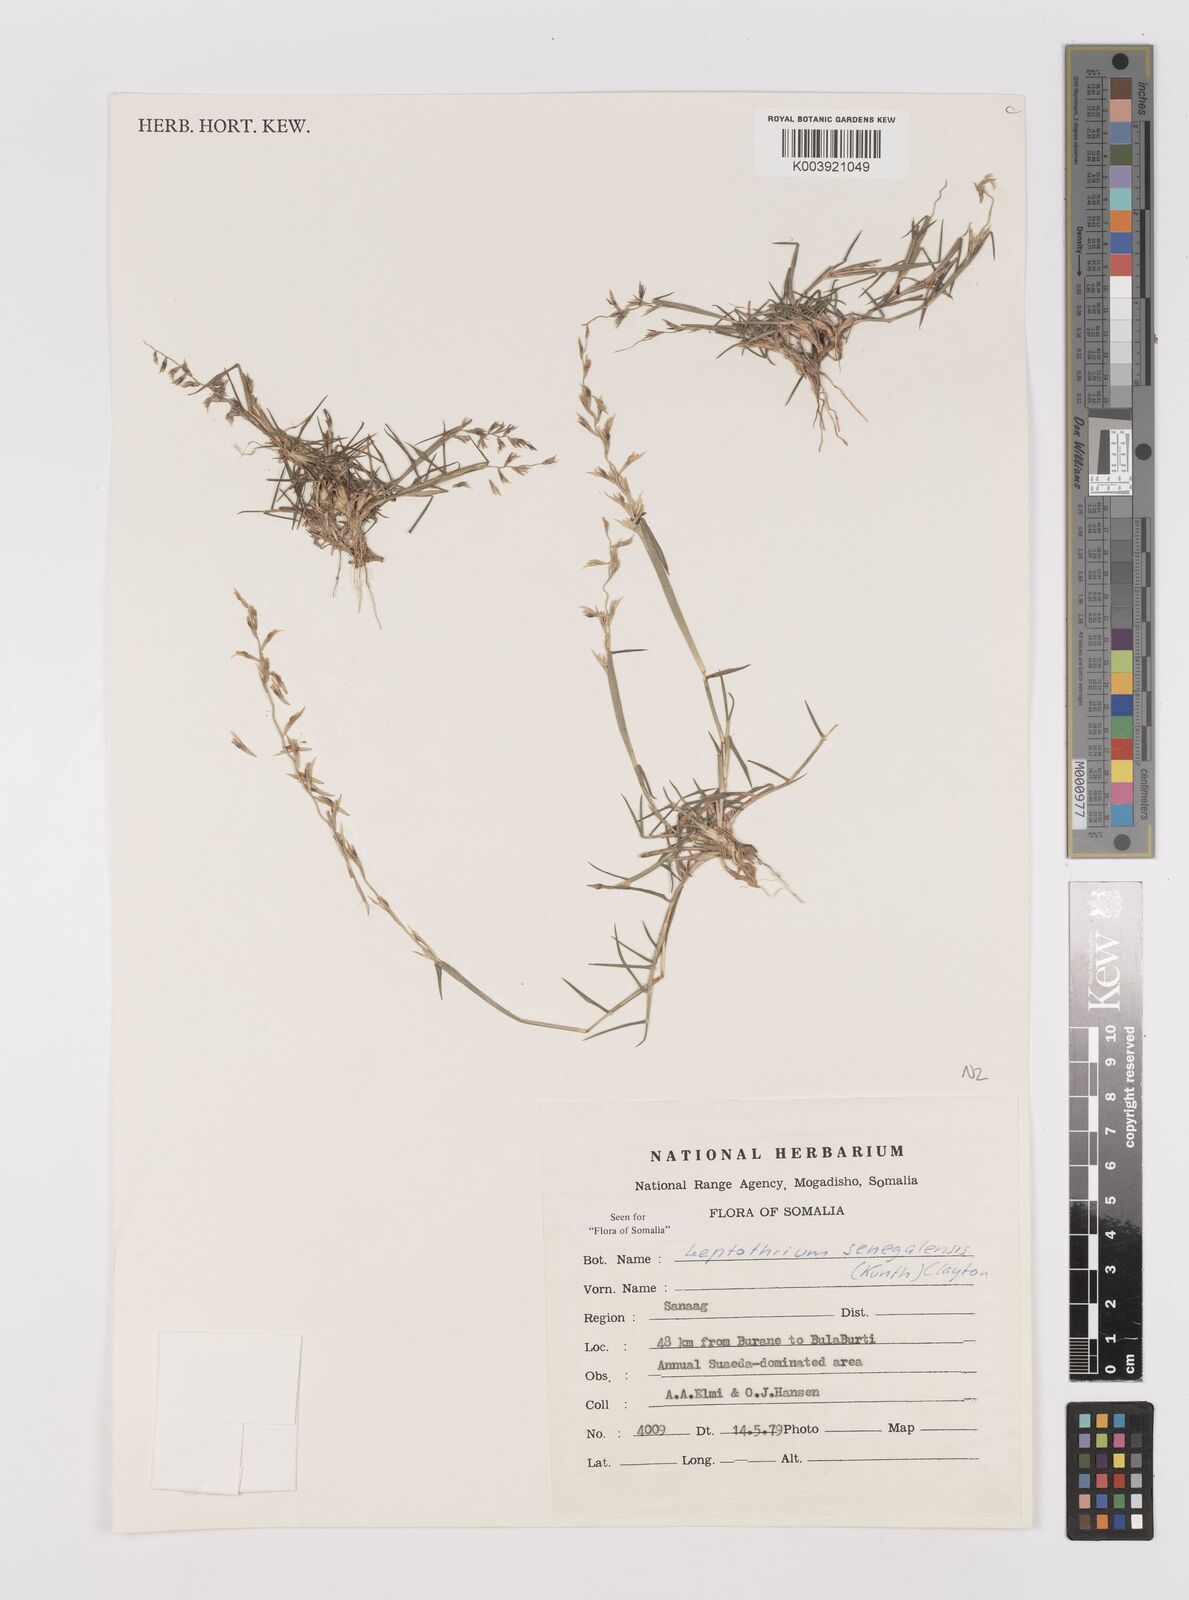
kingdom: Plantae
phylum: Tracheophyta
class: Liliopsida
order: Poales
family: Poaceae
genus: Leptothrium
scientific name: Leptothrium senegalense
